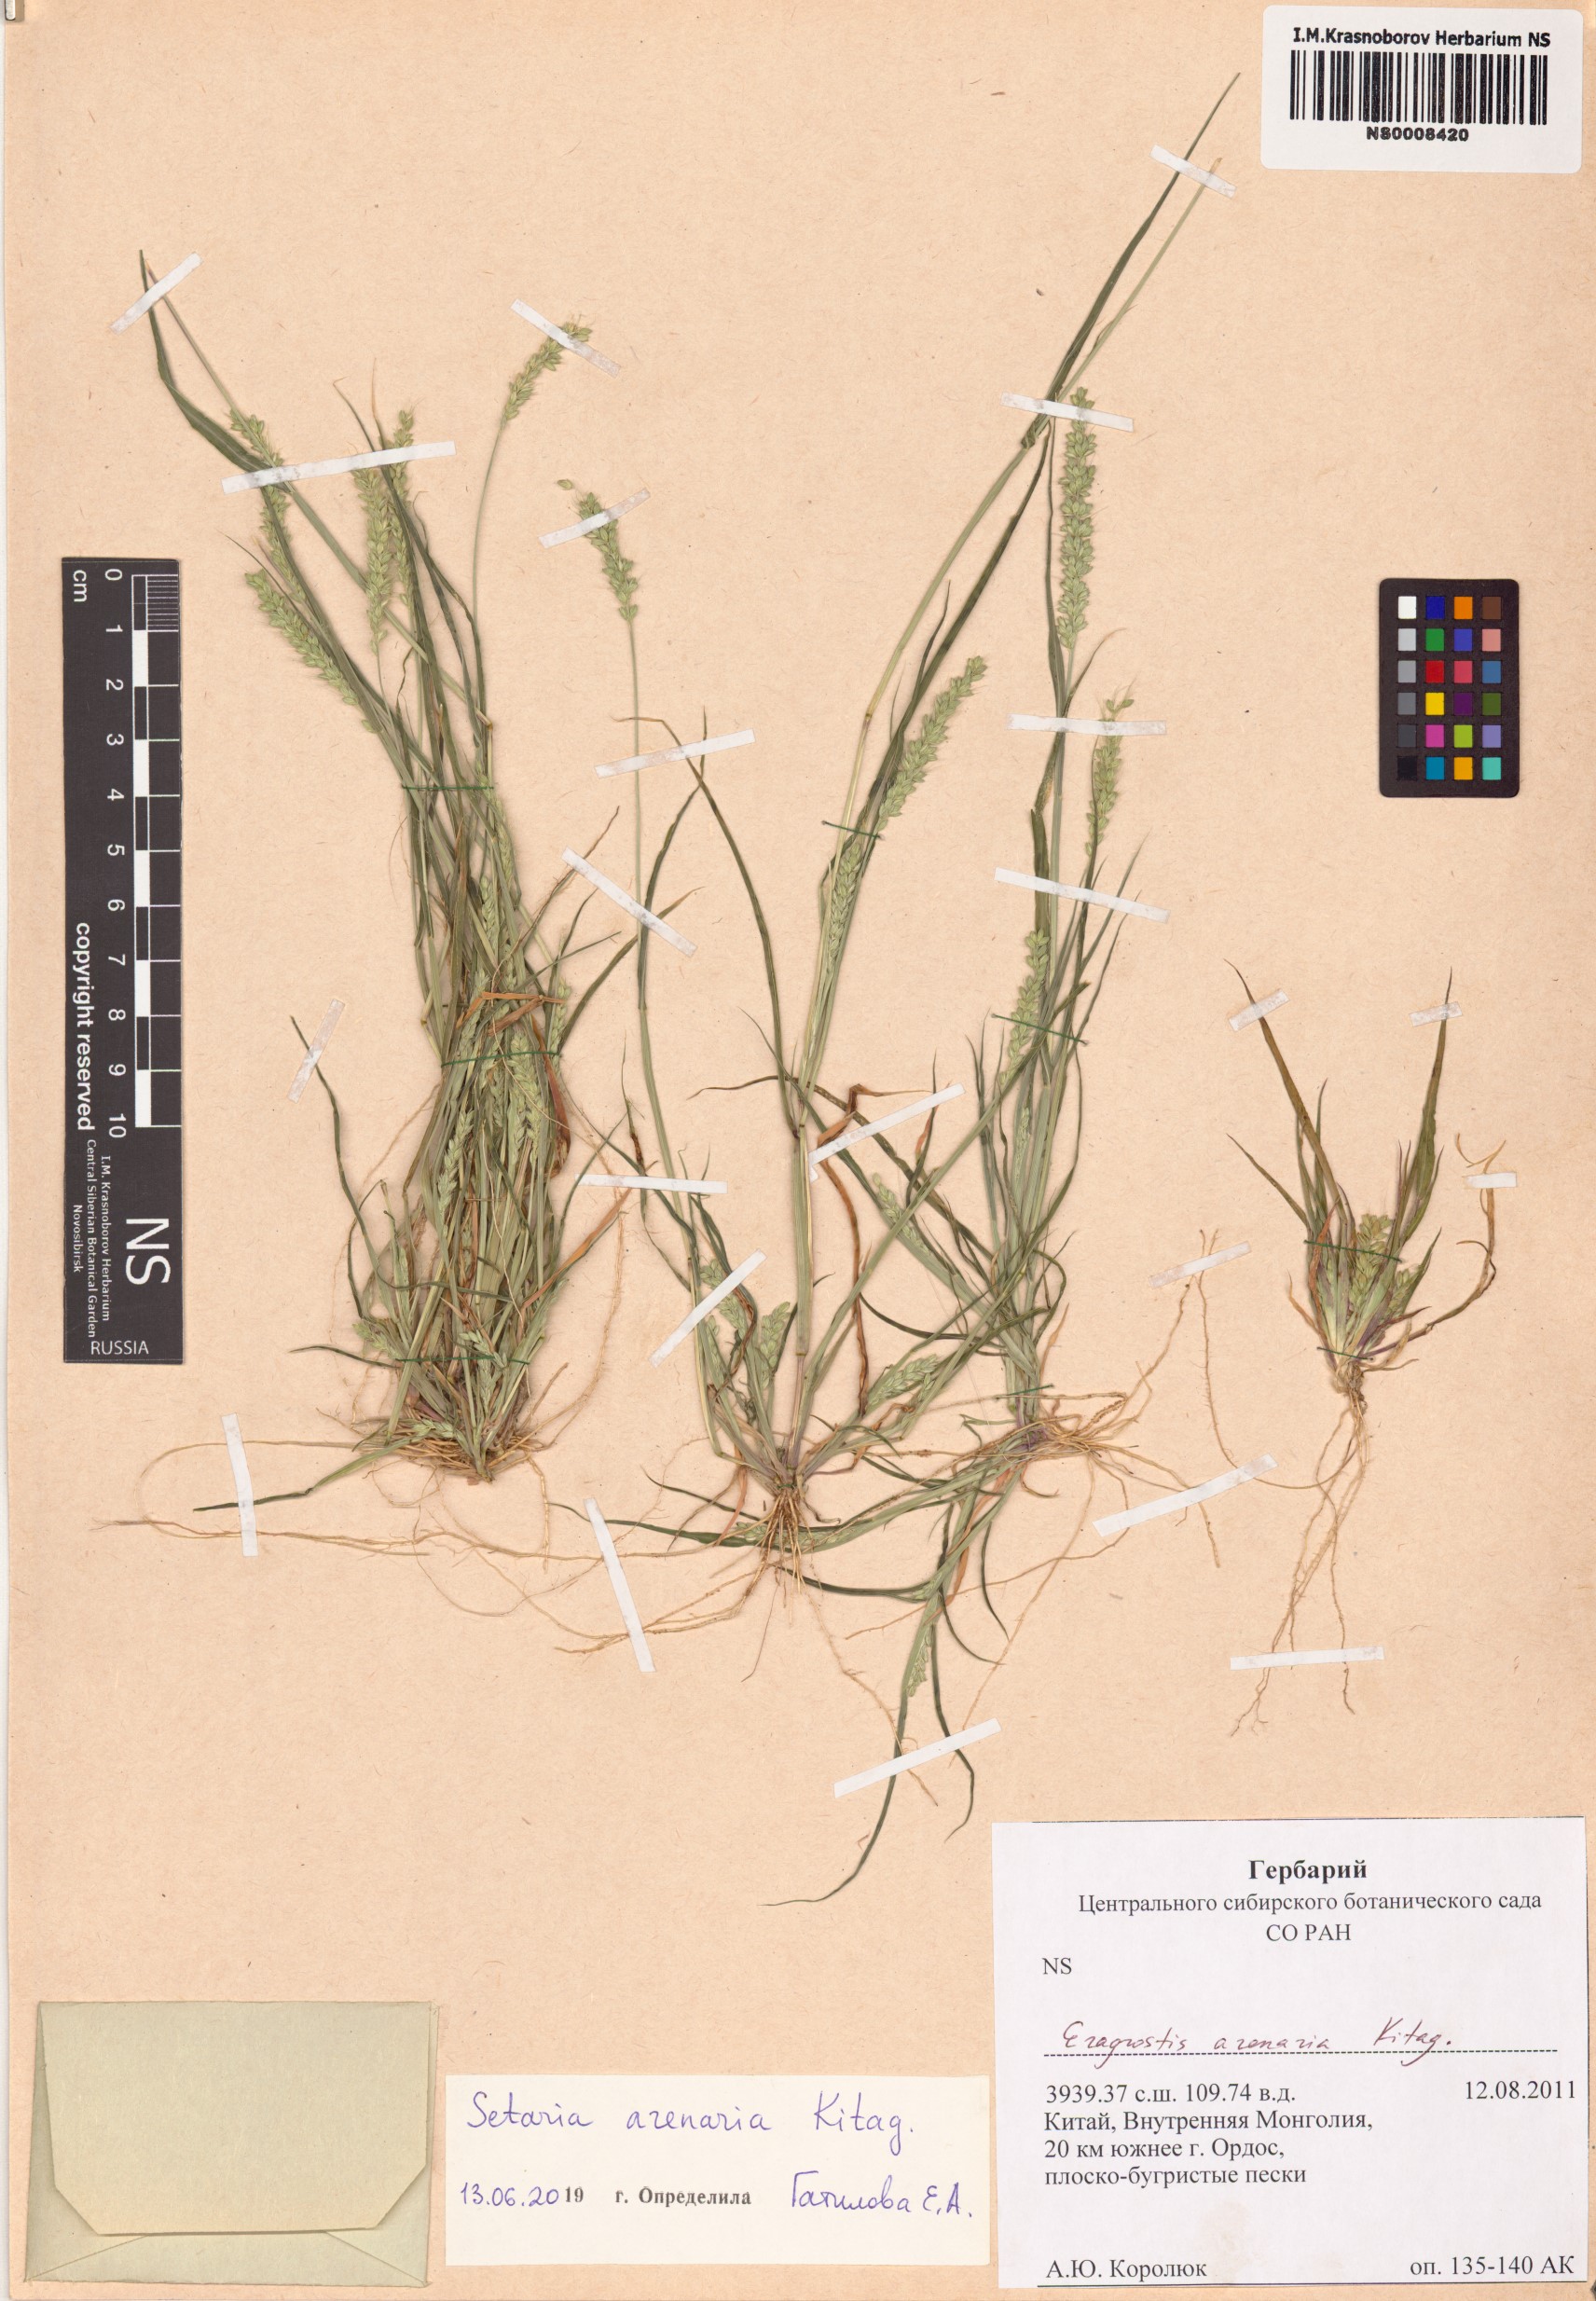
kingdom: Plantae
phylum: Tracheophyta
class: Liliopsida
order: Poales
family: Poaceae
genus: Setaria
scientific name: Setaria viridis
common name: Green bristlegrass
